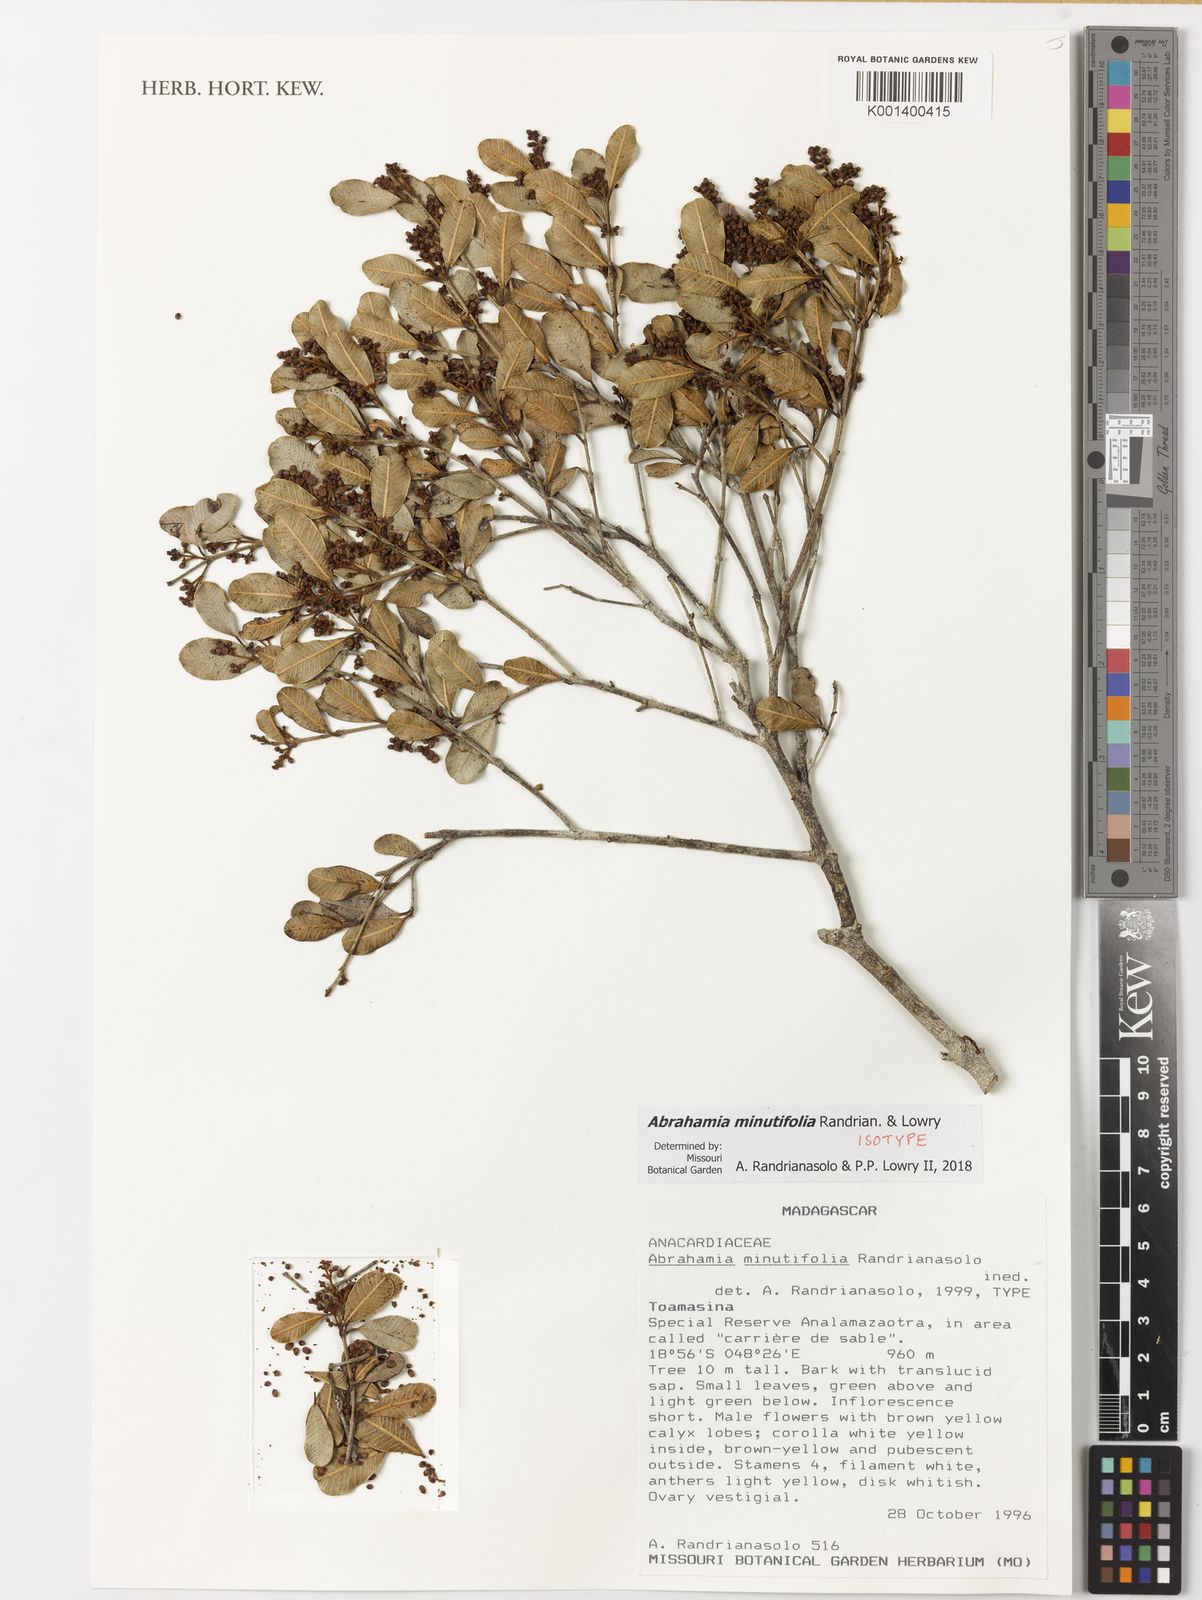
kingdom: Plantae
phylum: Tracheophyta
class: Magnoliopsida
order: Sapindales
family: Anacardiaceae
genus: Abrahamia
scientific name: Abrahamia minutifolia
